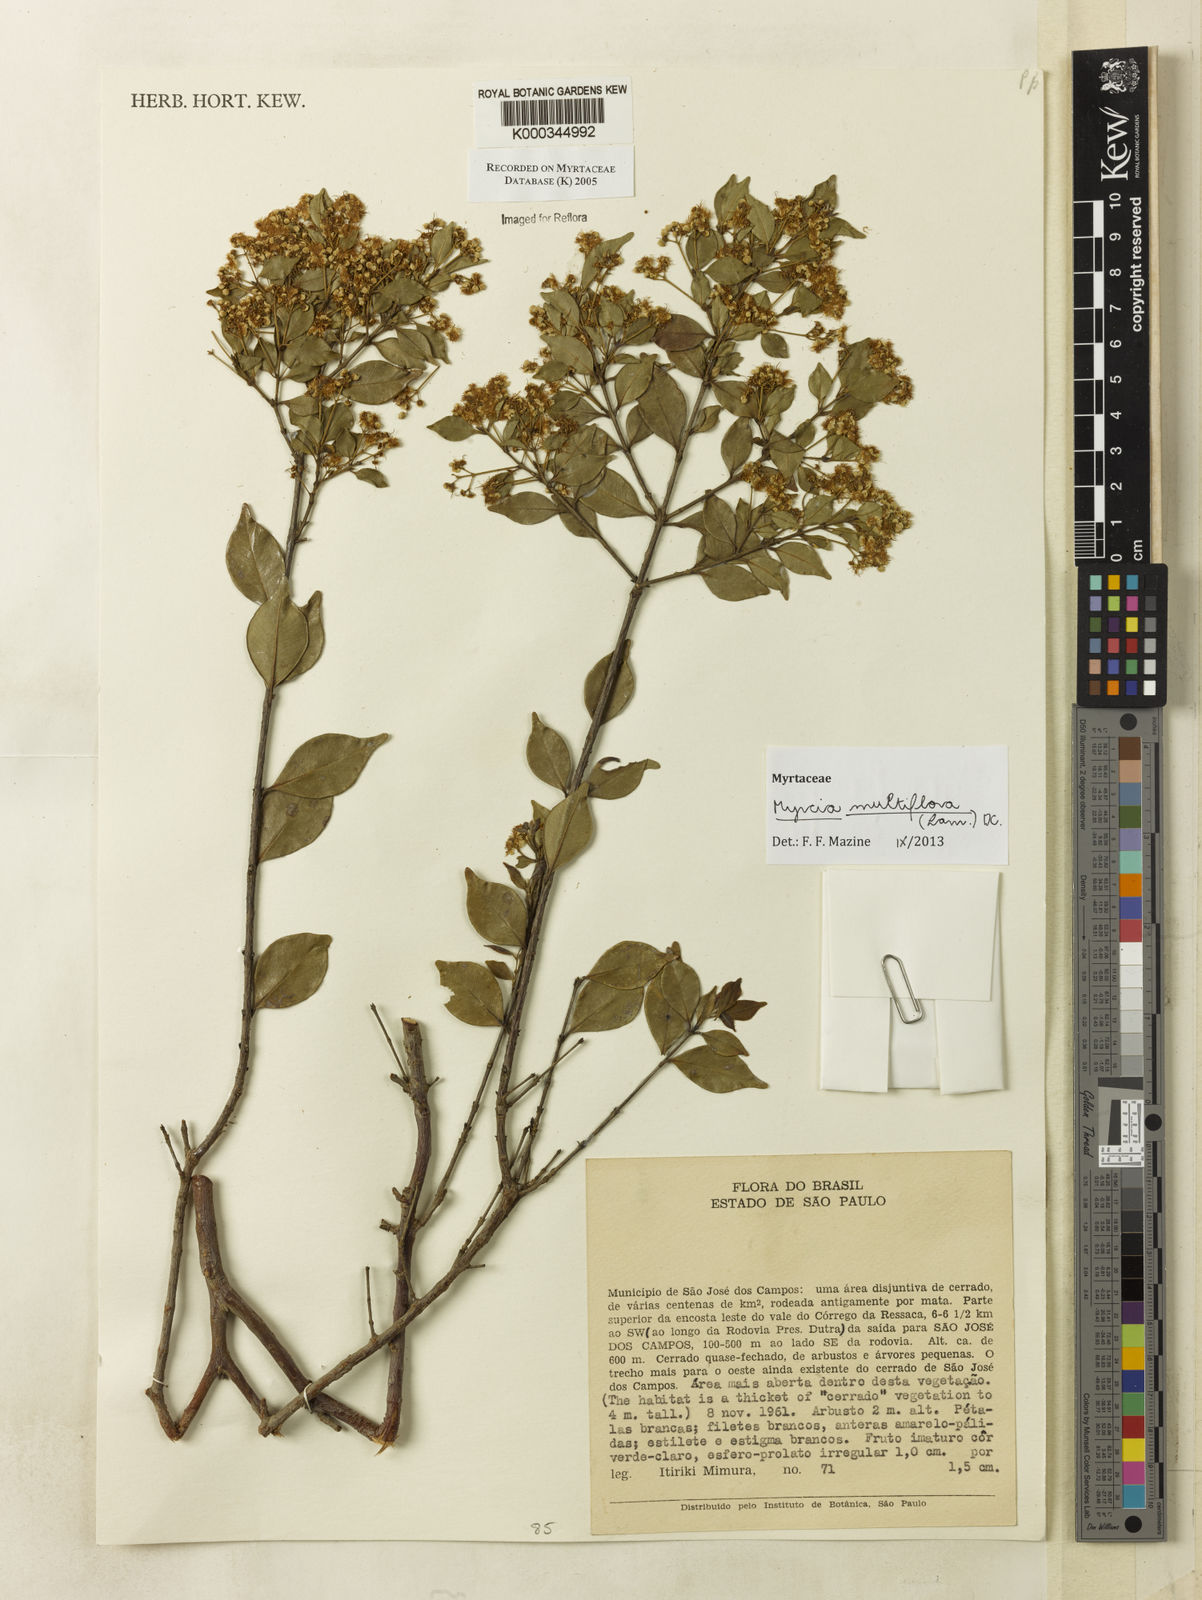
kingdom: Plantae
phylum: Tracheophyta
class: Magnoliopsida
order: Myrtales
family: Myrtaceae
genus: Myrcia
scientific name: Myrcia
